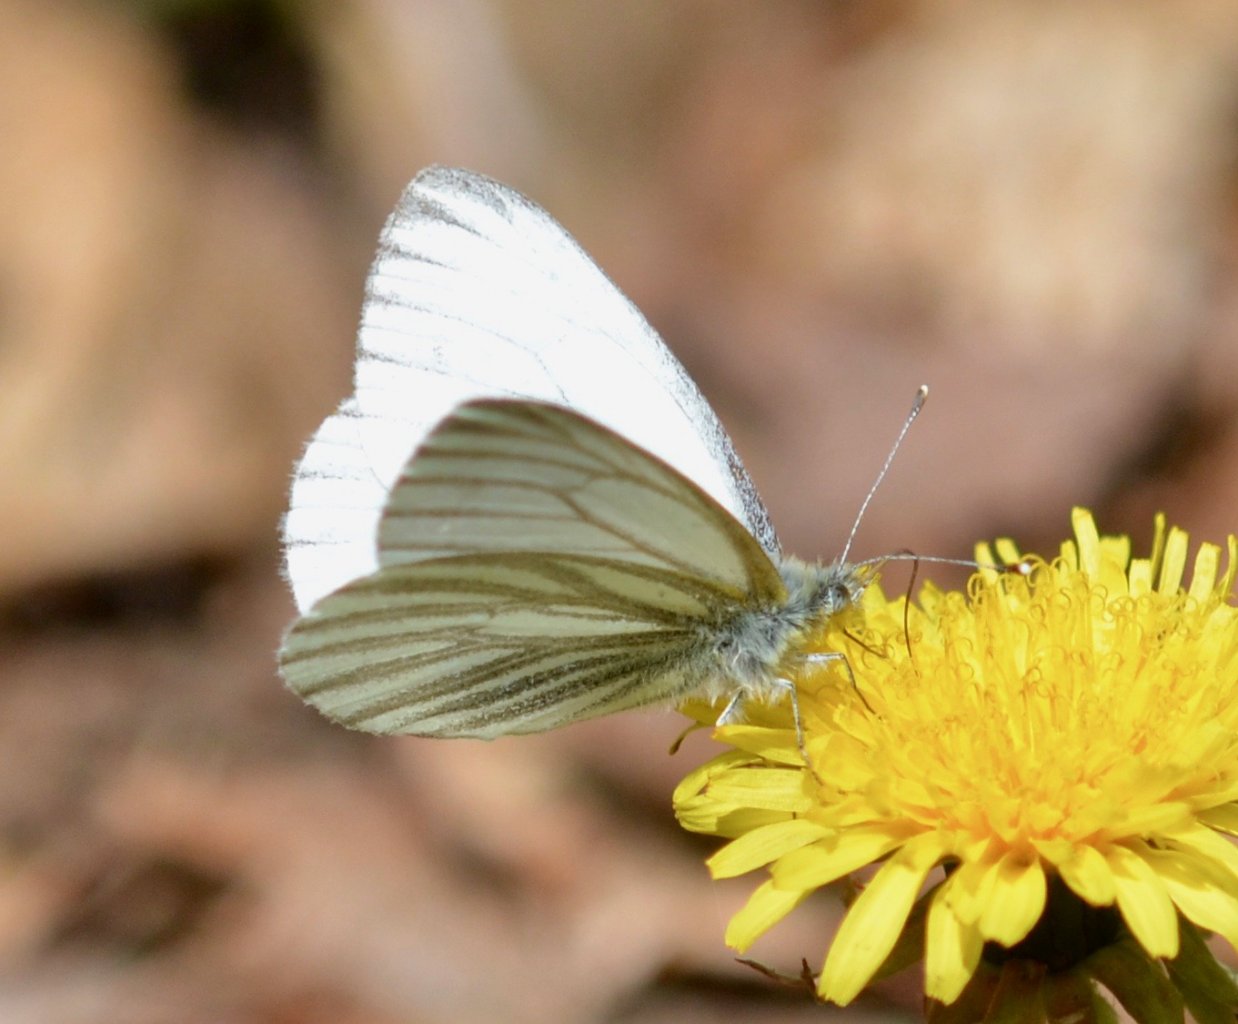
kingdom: Animalia
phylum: Arthropoda
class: Insecta
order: Lepidoptera
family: Pieridae
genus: Pieris
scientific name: Pieris marginalis
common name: Margined White
